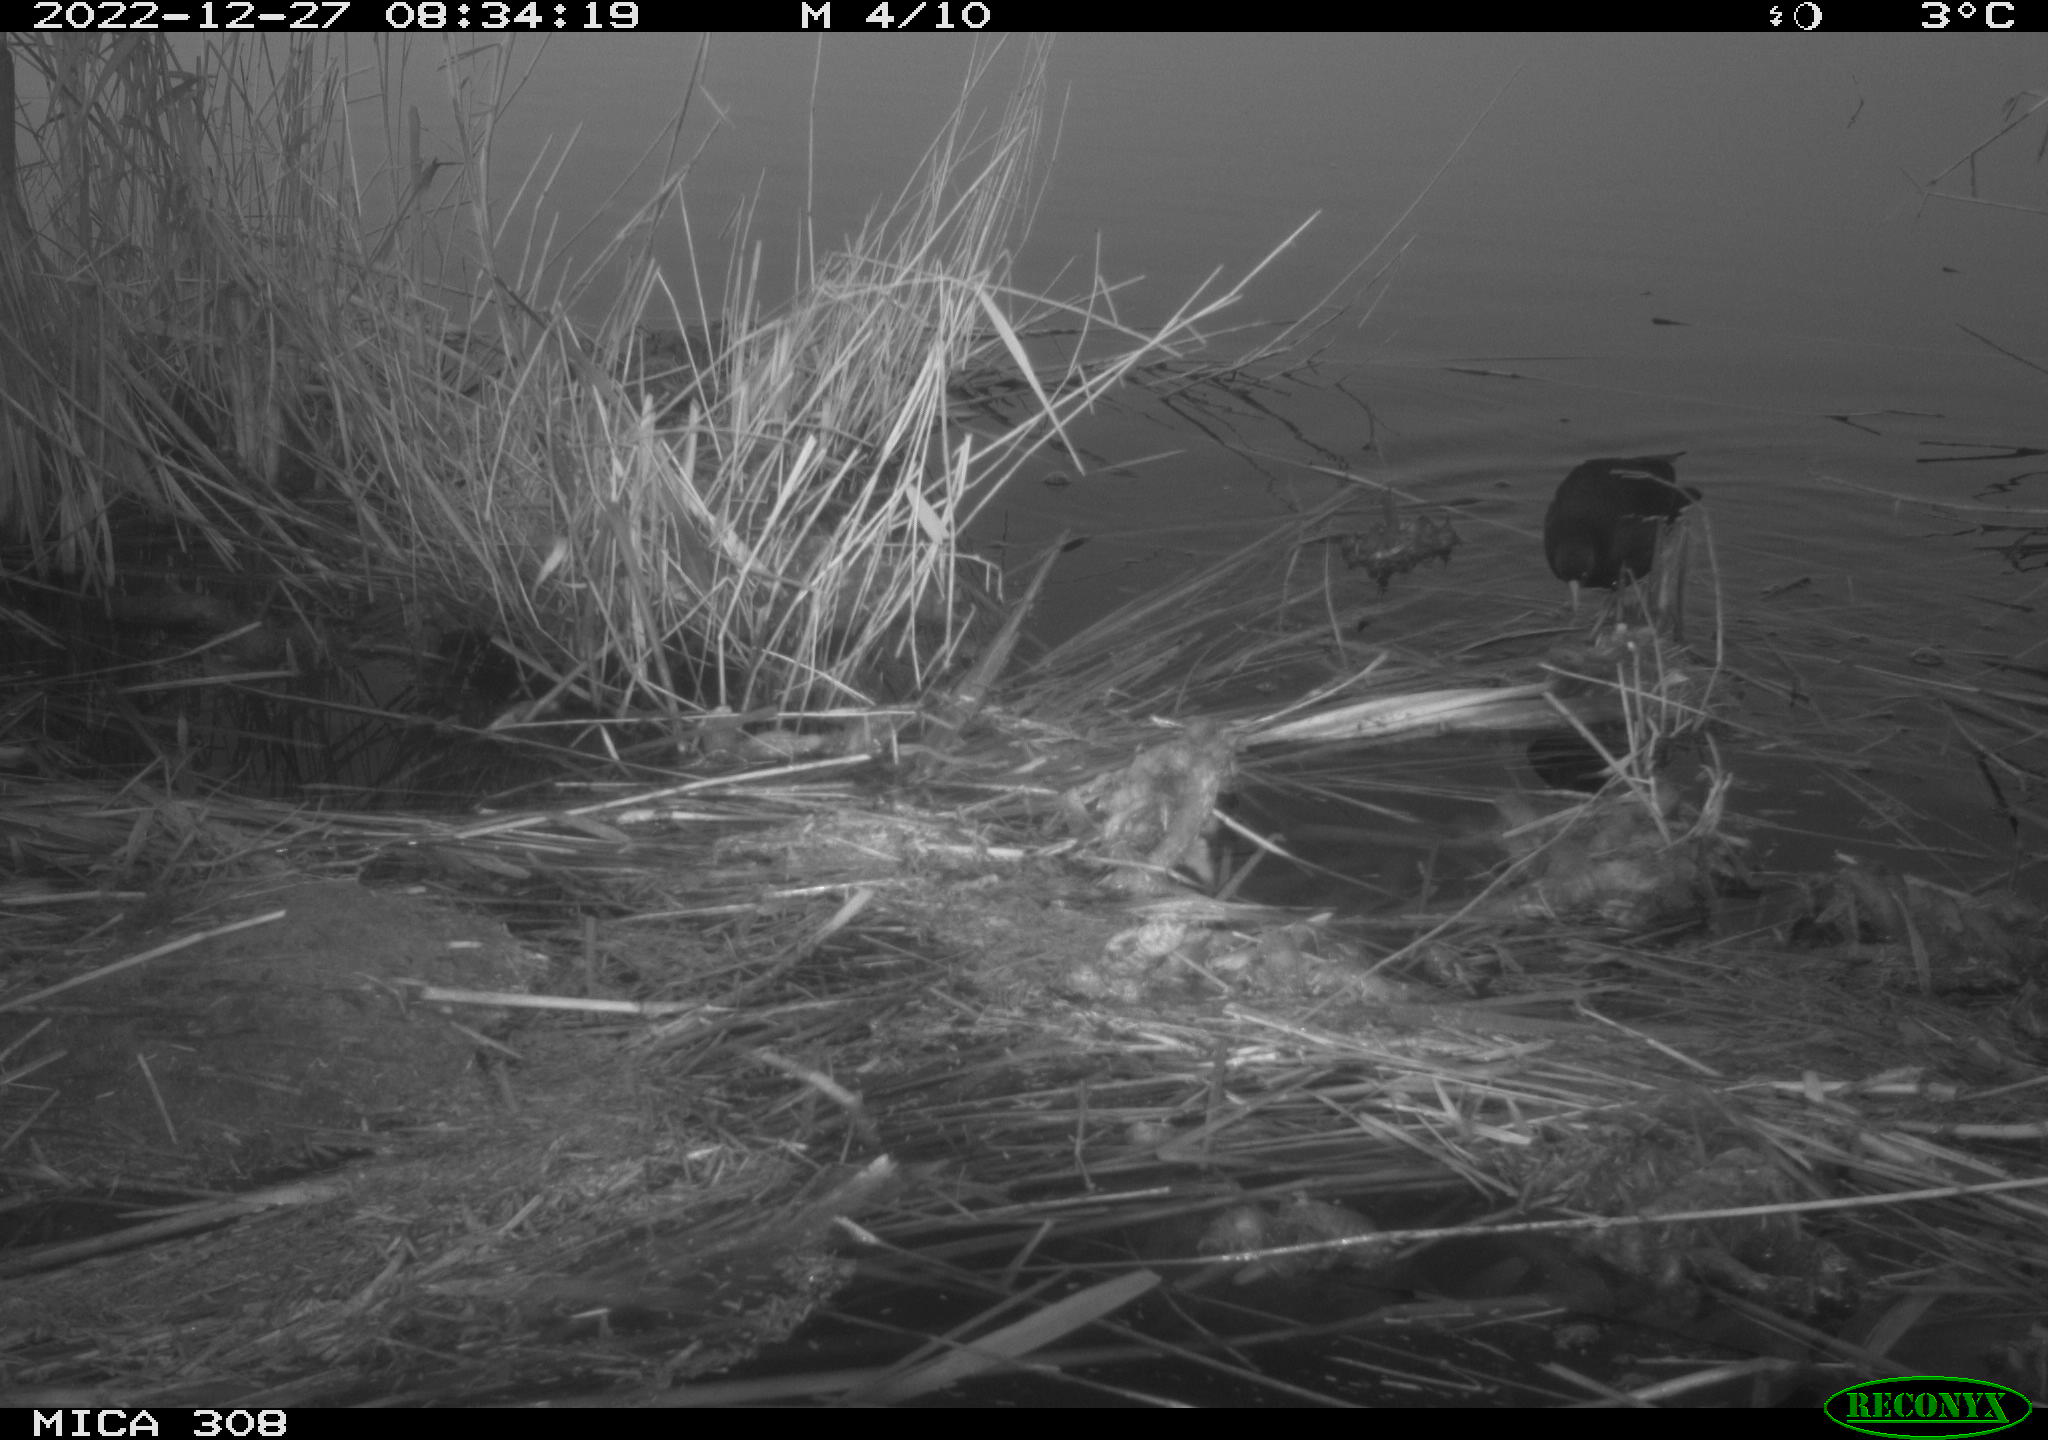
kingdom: Animalia
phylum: Chordata
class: Aves
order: Gruiformes
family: Rallidae
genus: Gallinula
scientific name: Gallinula chloropus
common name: Common moorhen
